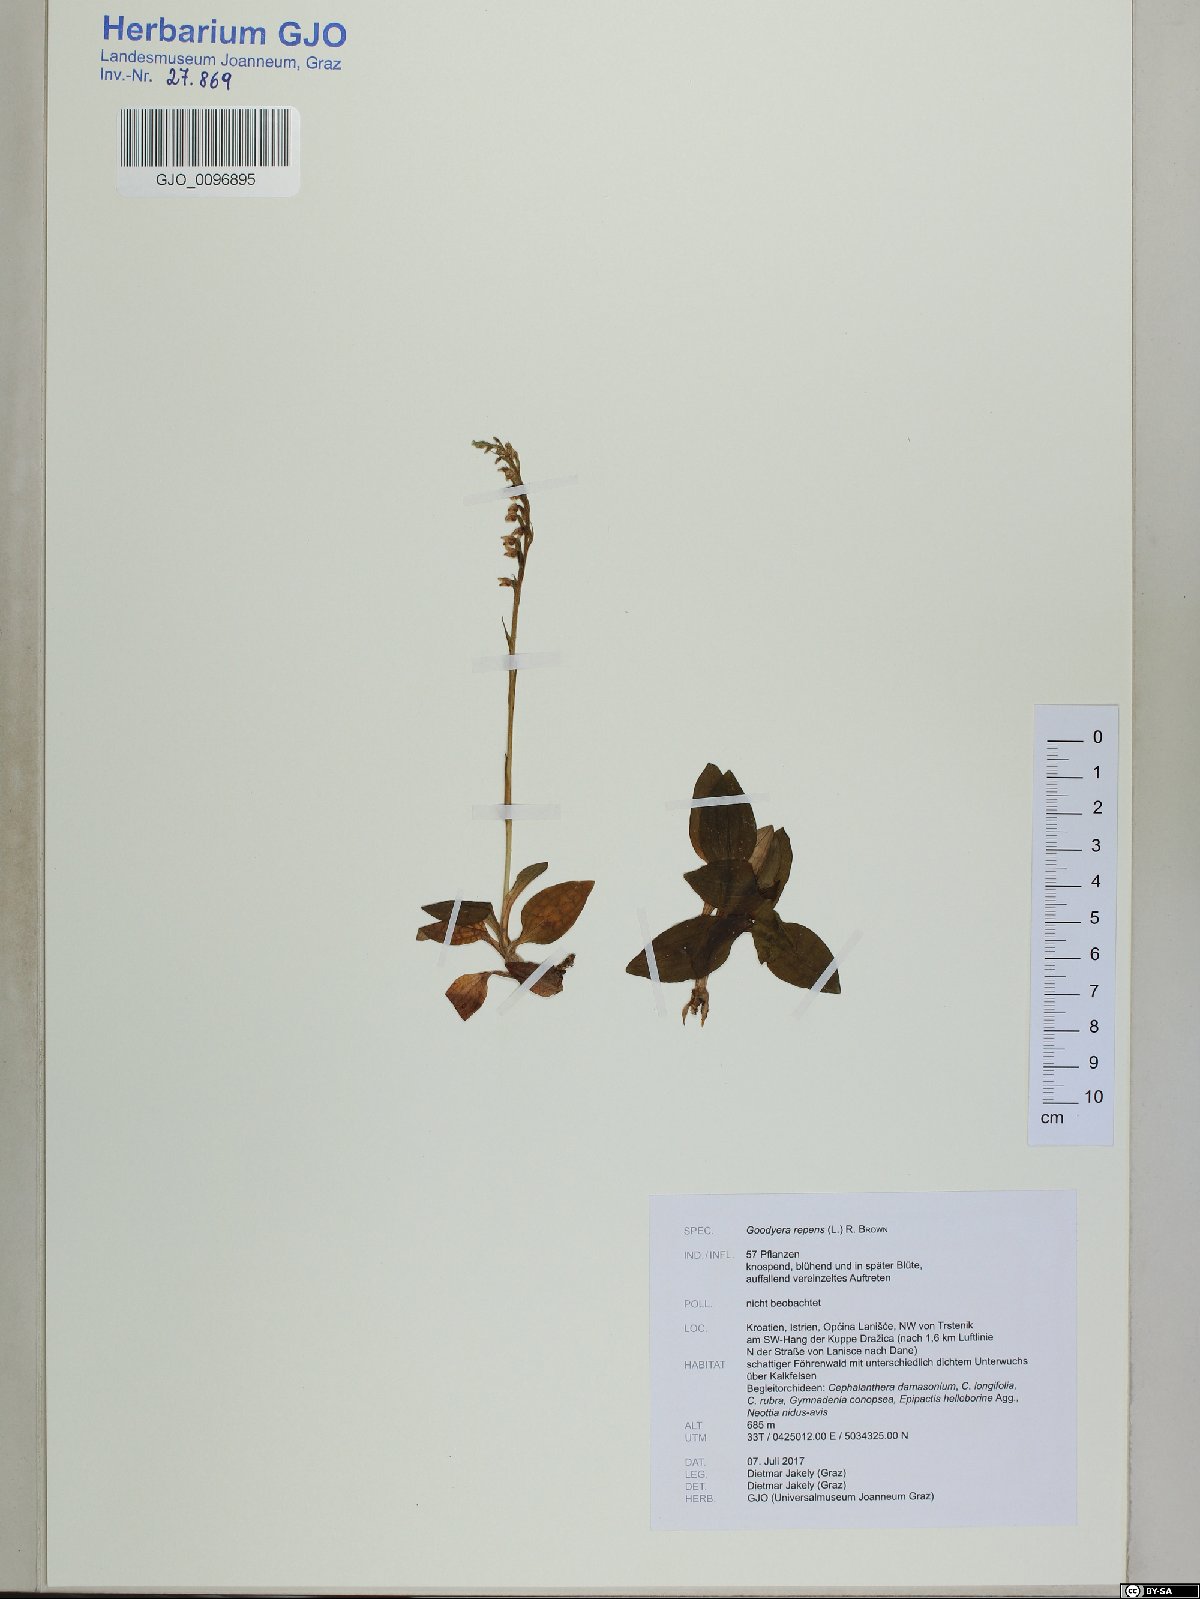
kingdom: Plantae
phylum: Tracheophyta
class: Liliopsida
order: Asparagales
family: Orchidaceae
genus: Goodyera
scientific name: Goodyera repens
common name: Creeping lady's-tresses
